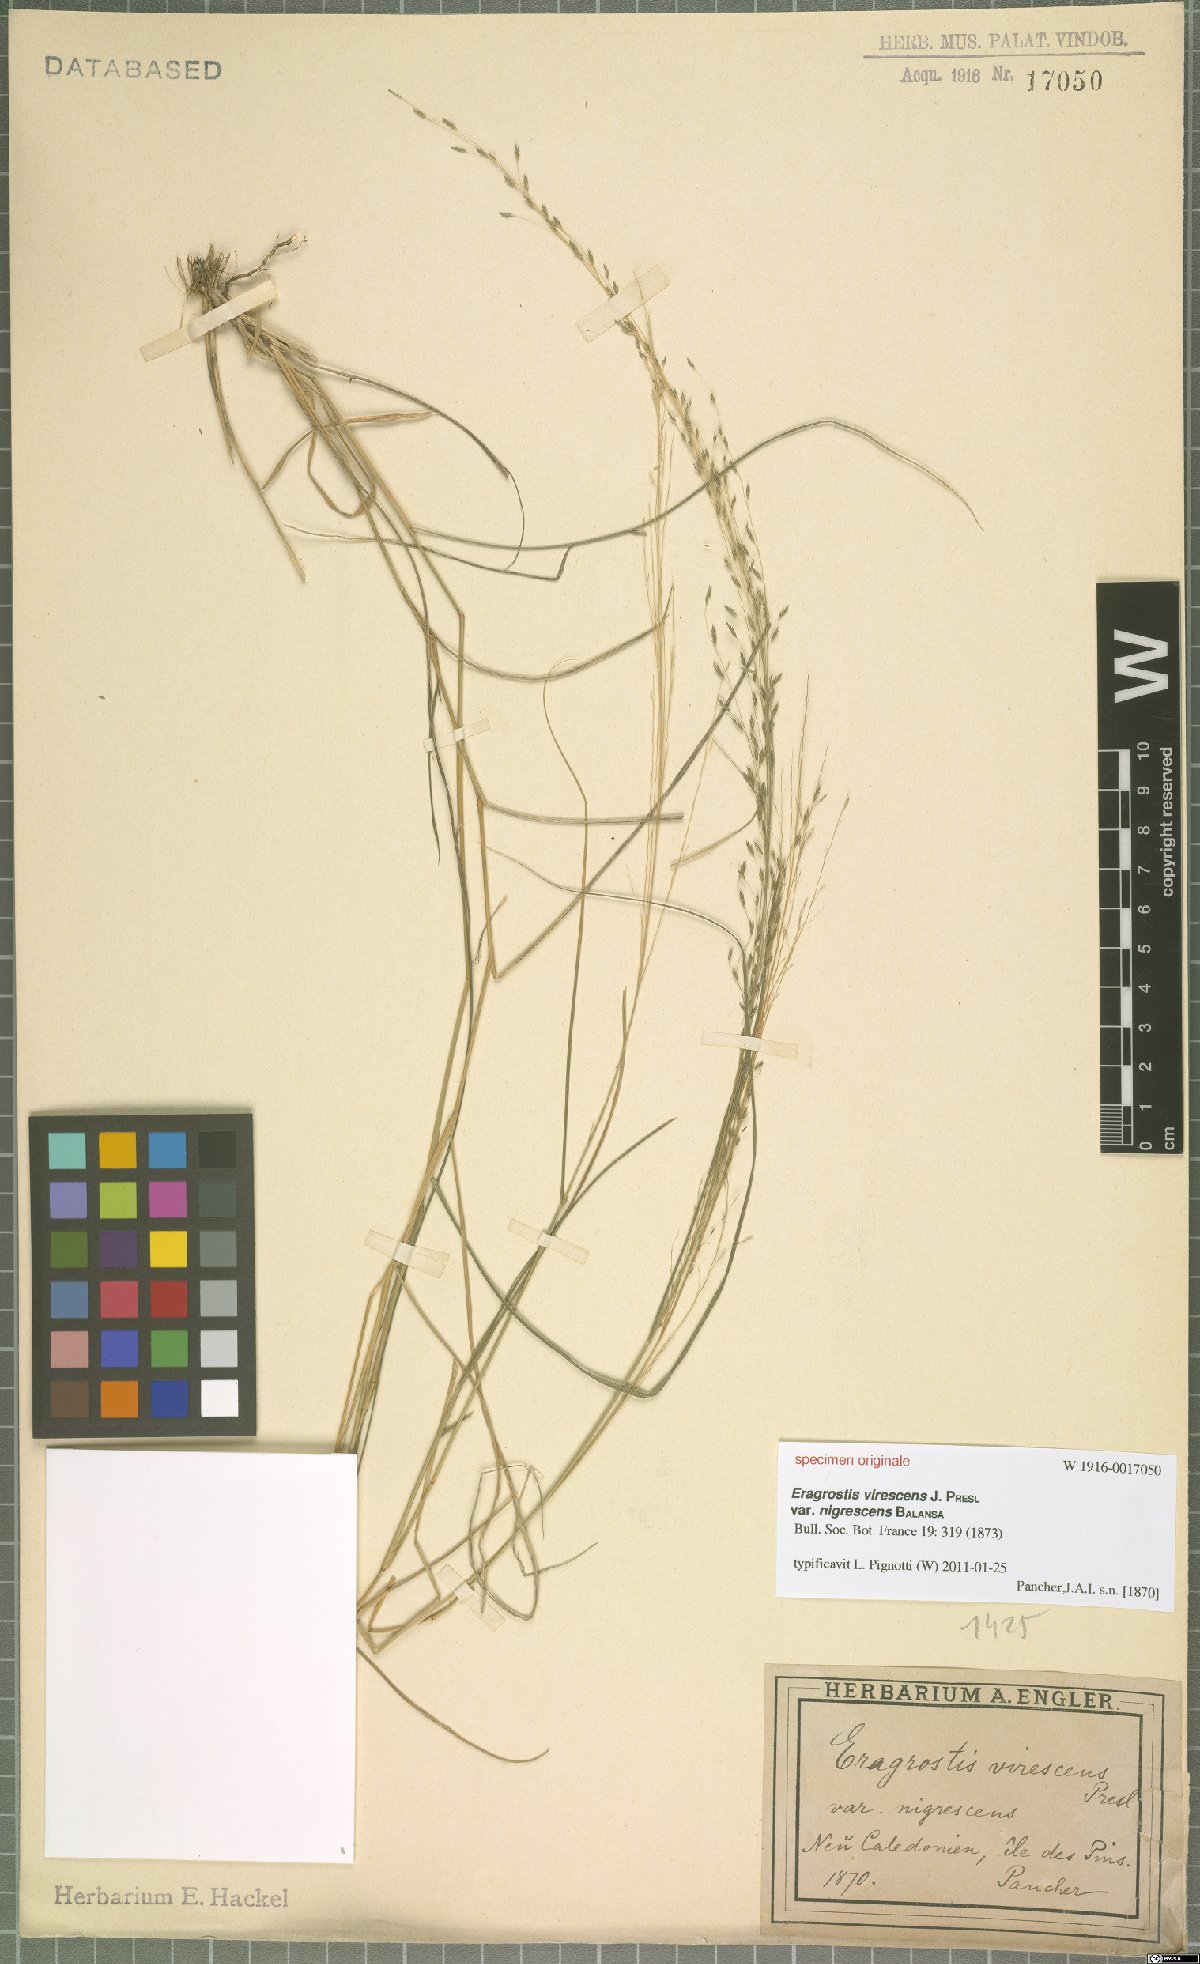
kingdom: Plantae
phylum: Tracheophyta
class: Liliopsida
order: Poales
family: Poaceae
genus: Eragrostis
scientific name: Eragrostis virescens
